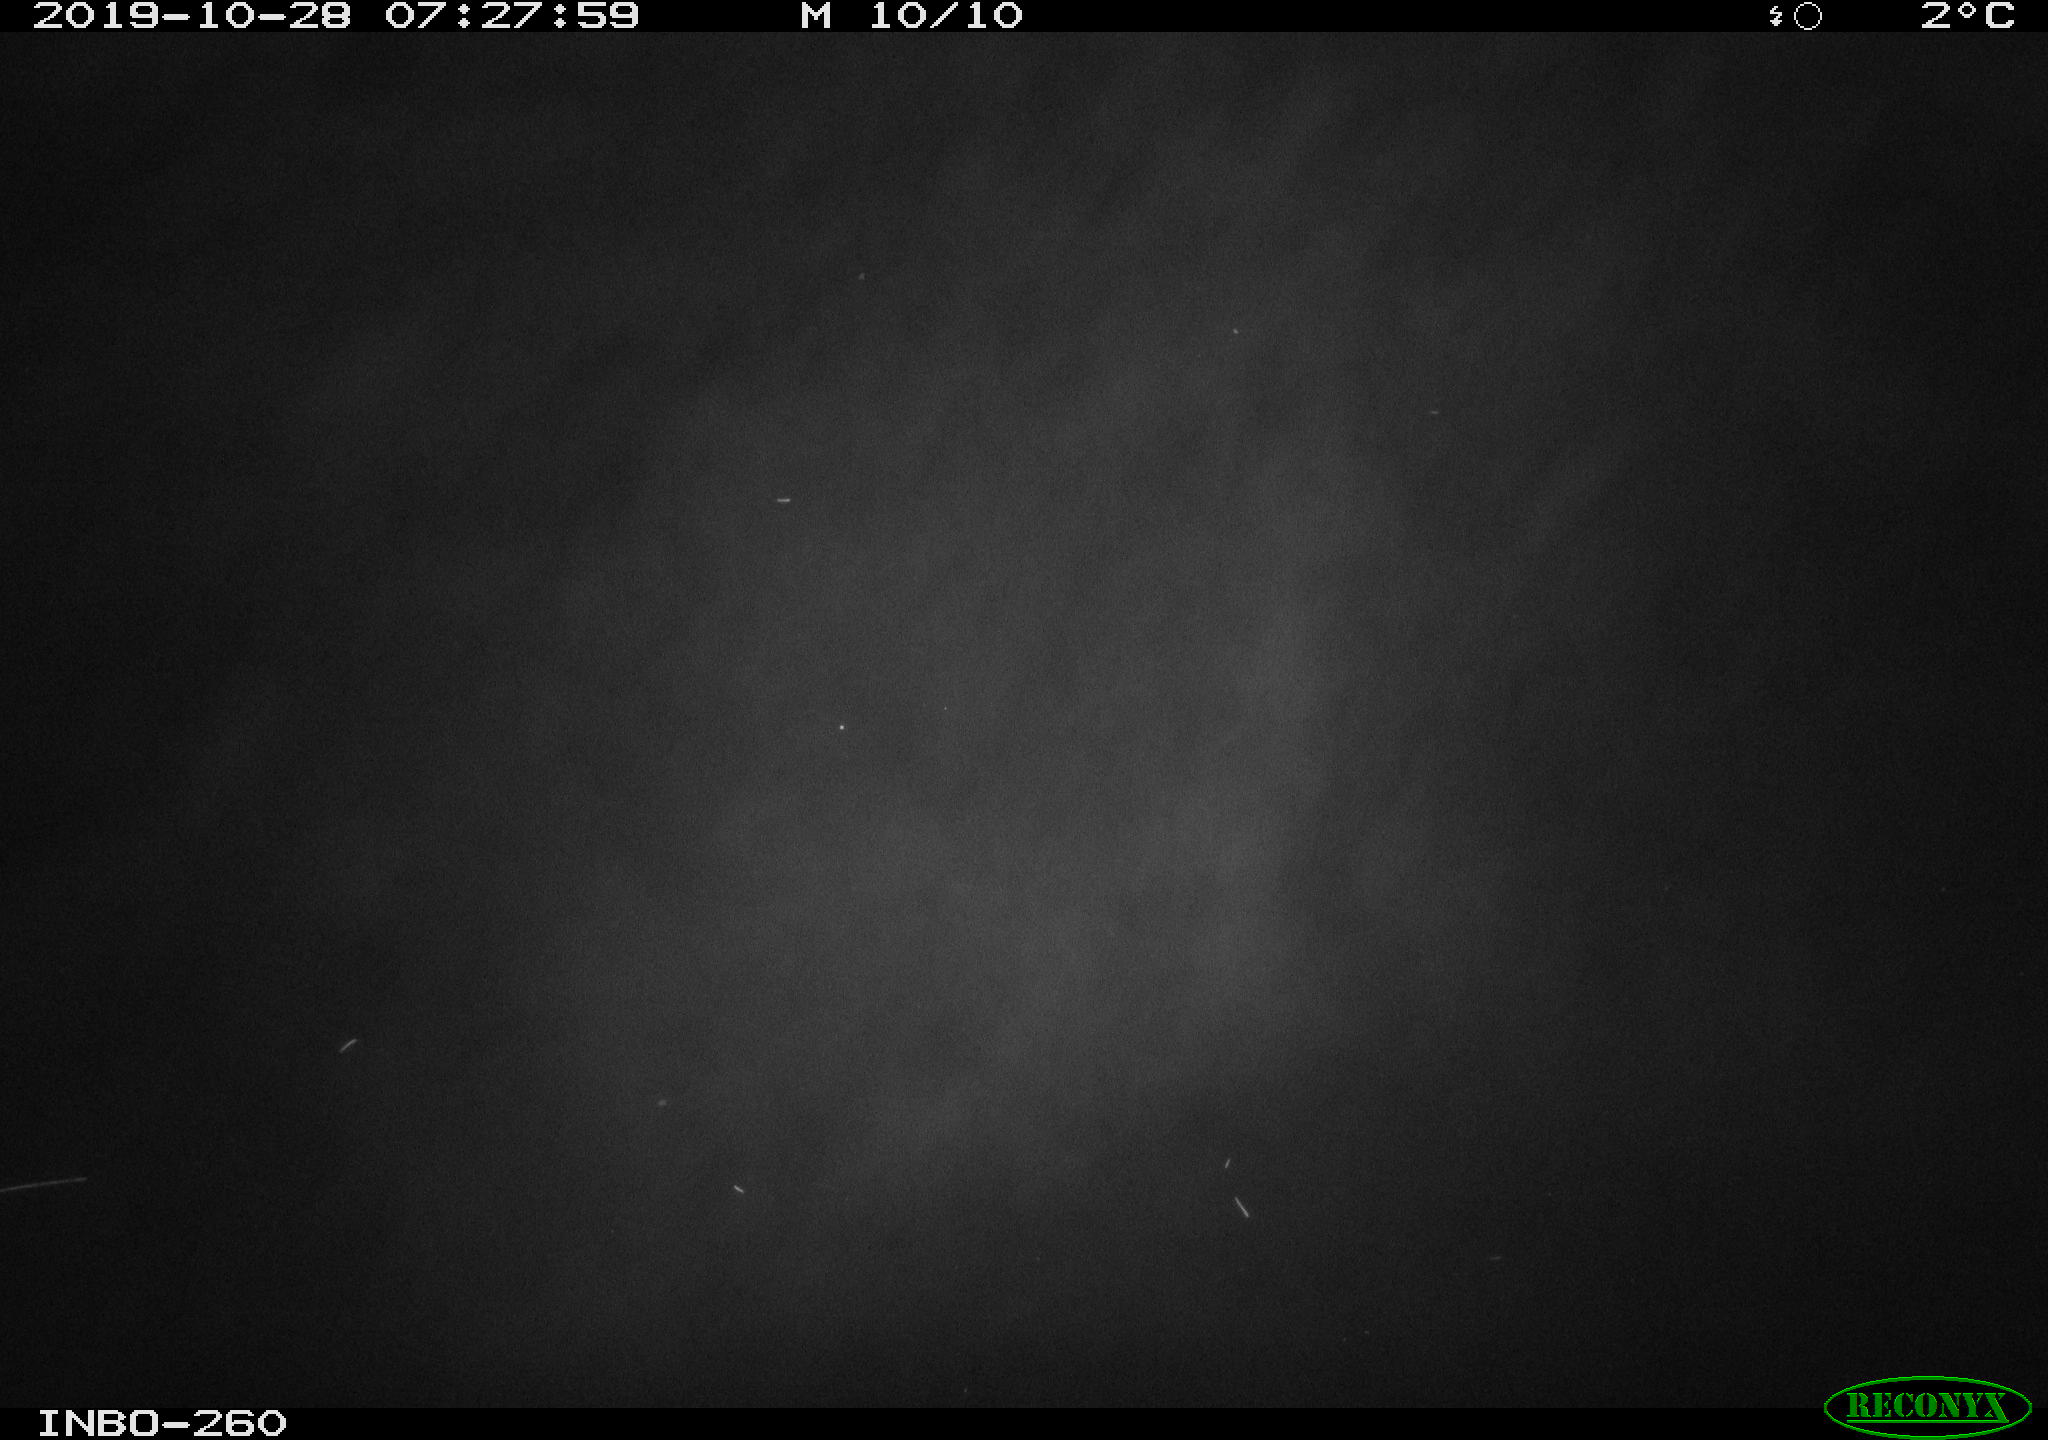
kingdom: Animalia
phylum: Chordata
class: Aves
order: Anseriformes
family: Anatidae
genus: Anas
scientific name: Anas platyrhynchos
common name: Mallard
